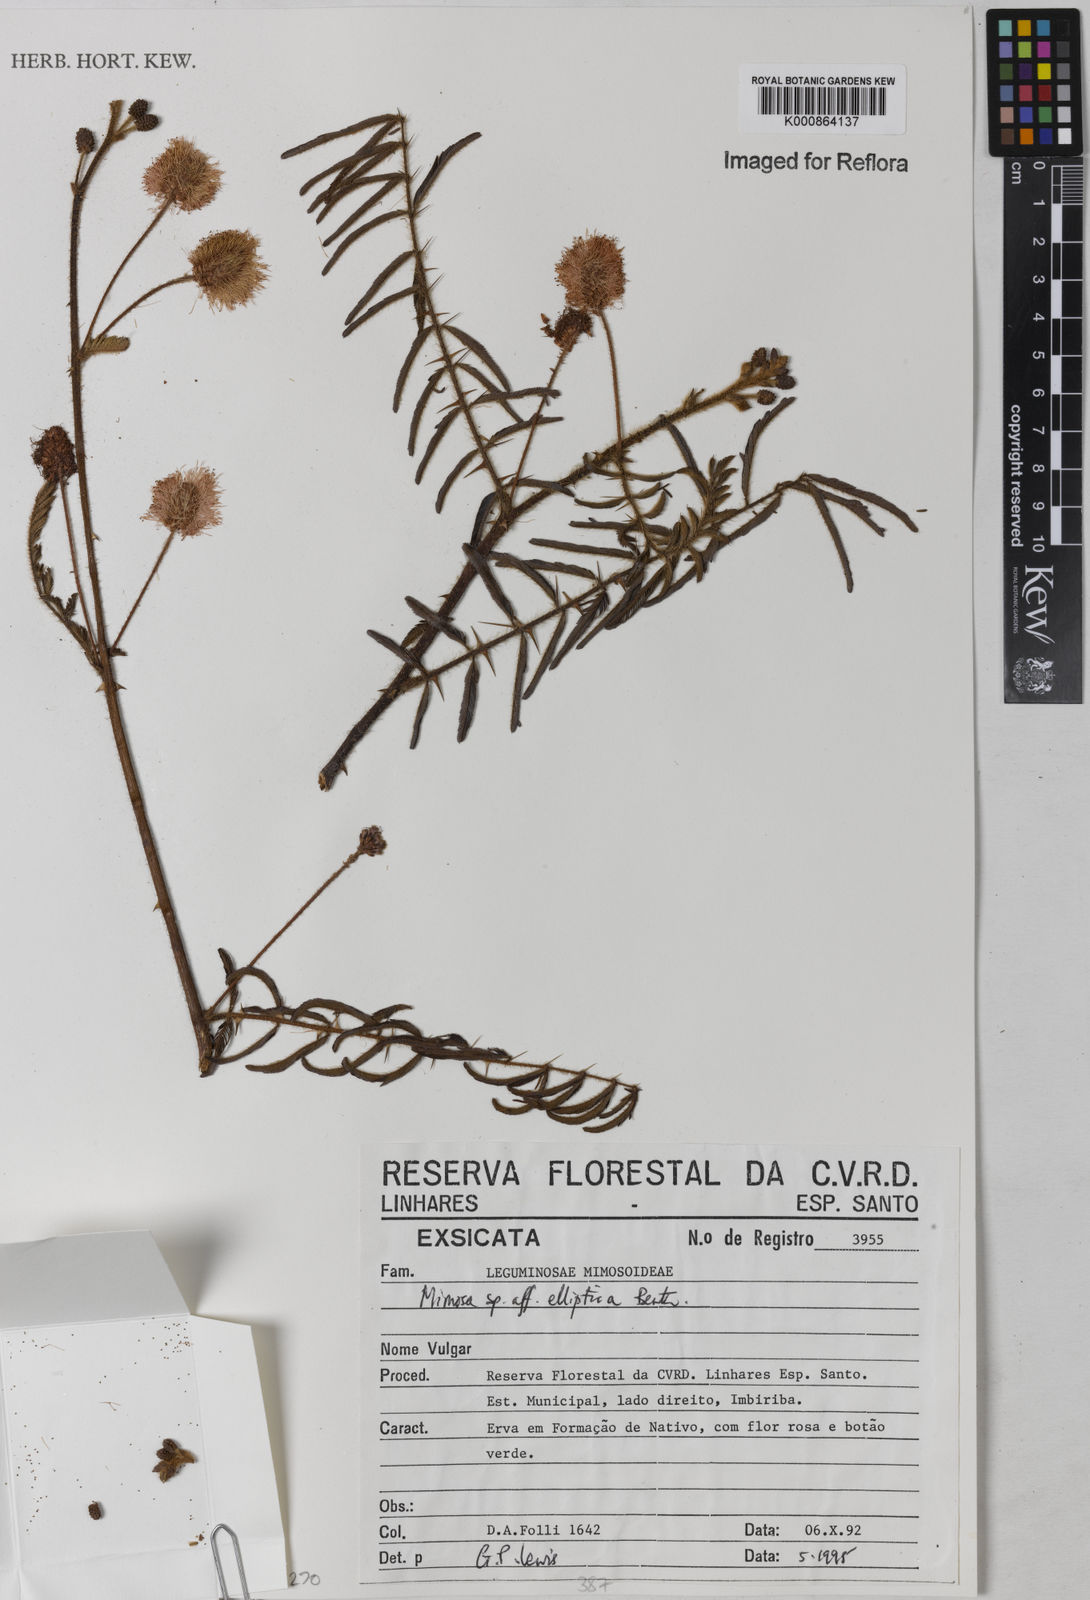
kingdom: Plantae
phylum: Tracheophyta
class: Magnoliopsida
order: Fabales
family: Fabaceae
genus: Mimosa
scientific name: Mimosa elliptica
